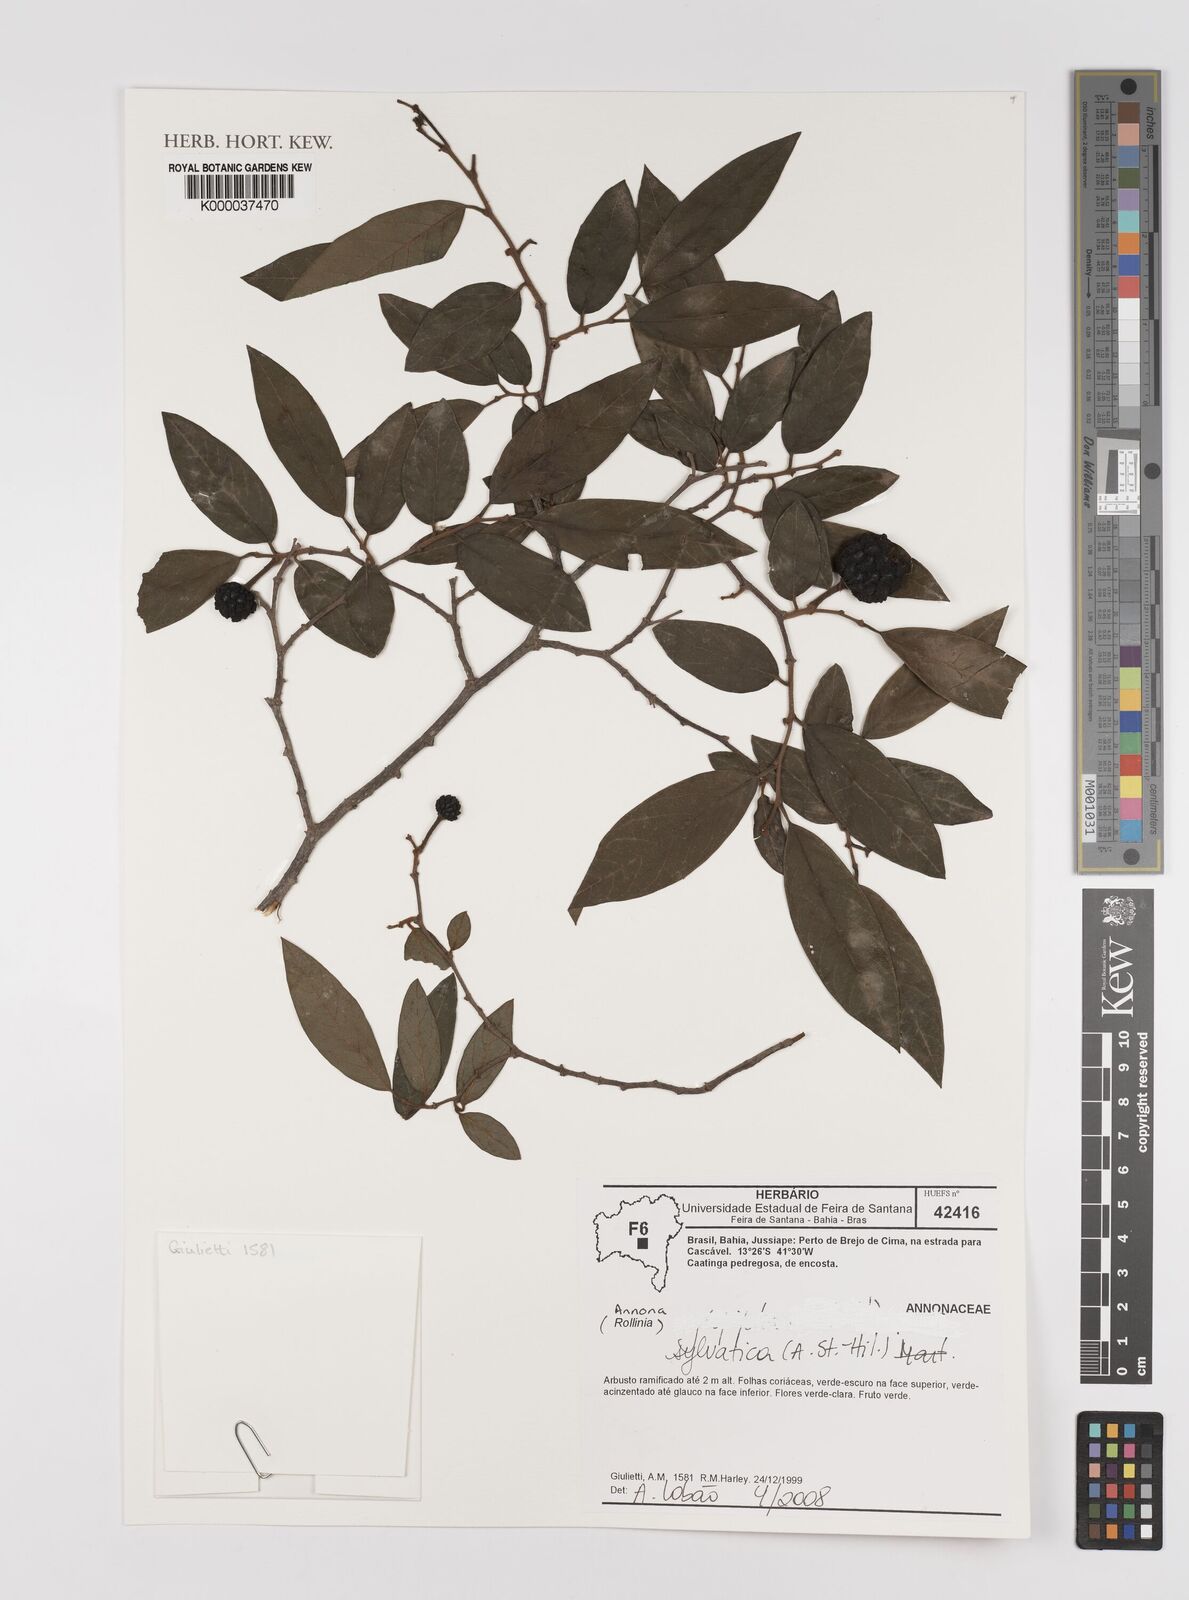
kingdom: Plantae
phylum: Tracheophyta
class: Magnoliopsida
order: Magnoliales
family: Annonaceae
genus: Annona
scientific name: Annona sylvatica
